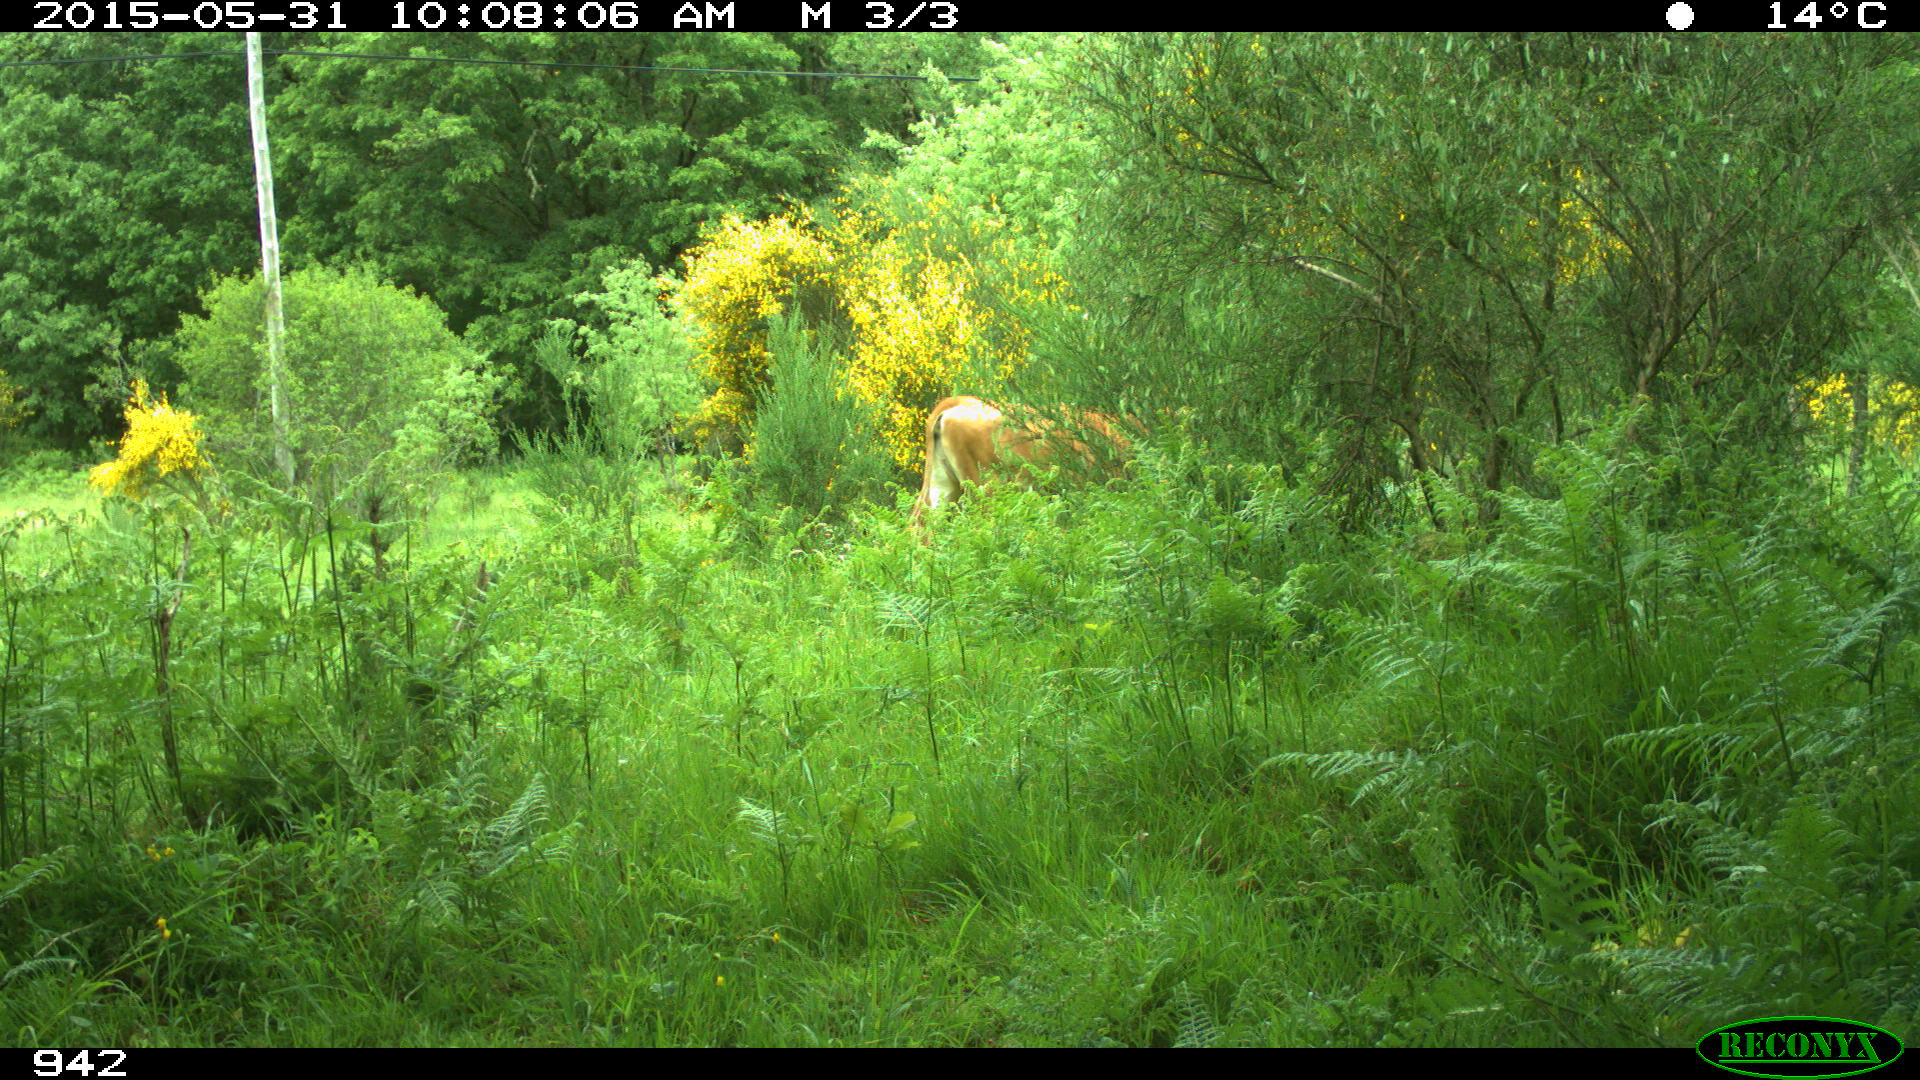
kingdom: Animalia
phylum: Chordata
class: Mammalia
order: Artiodactyla
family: Bovidae
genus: Bos
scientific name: Bos taurus
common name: Domesticated cattle
